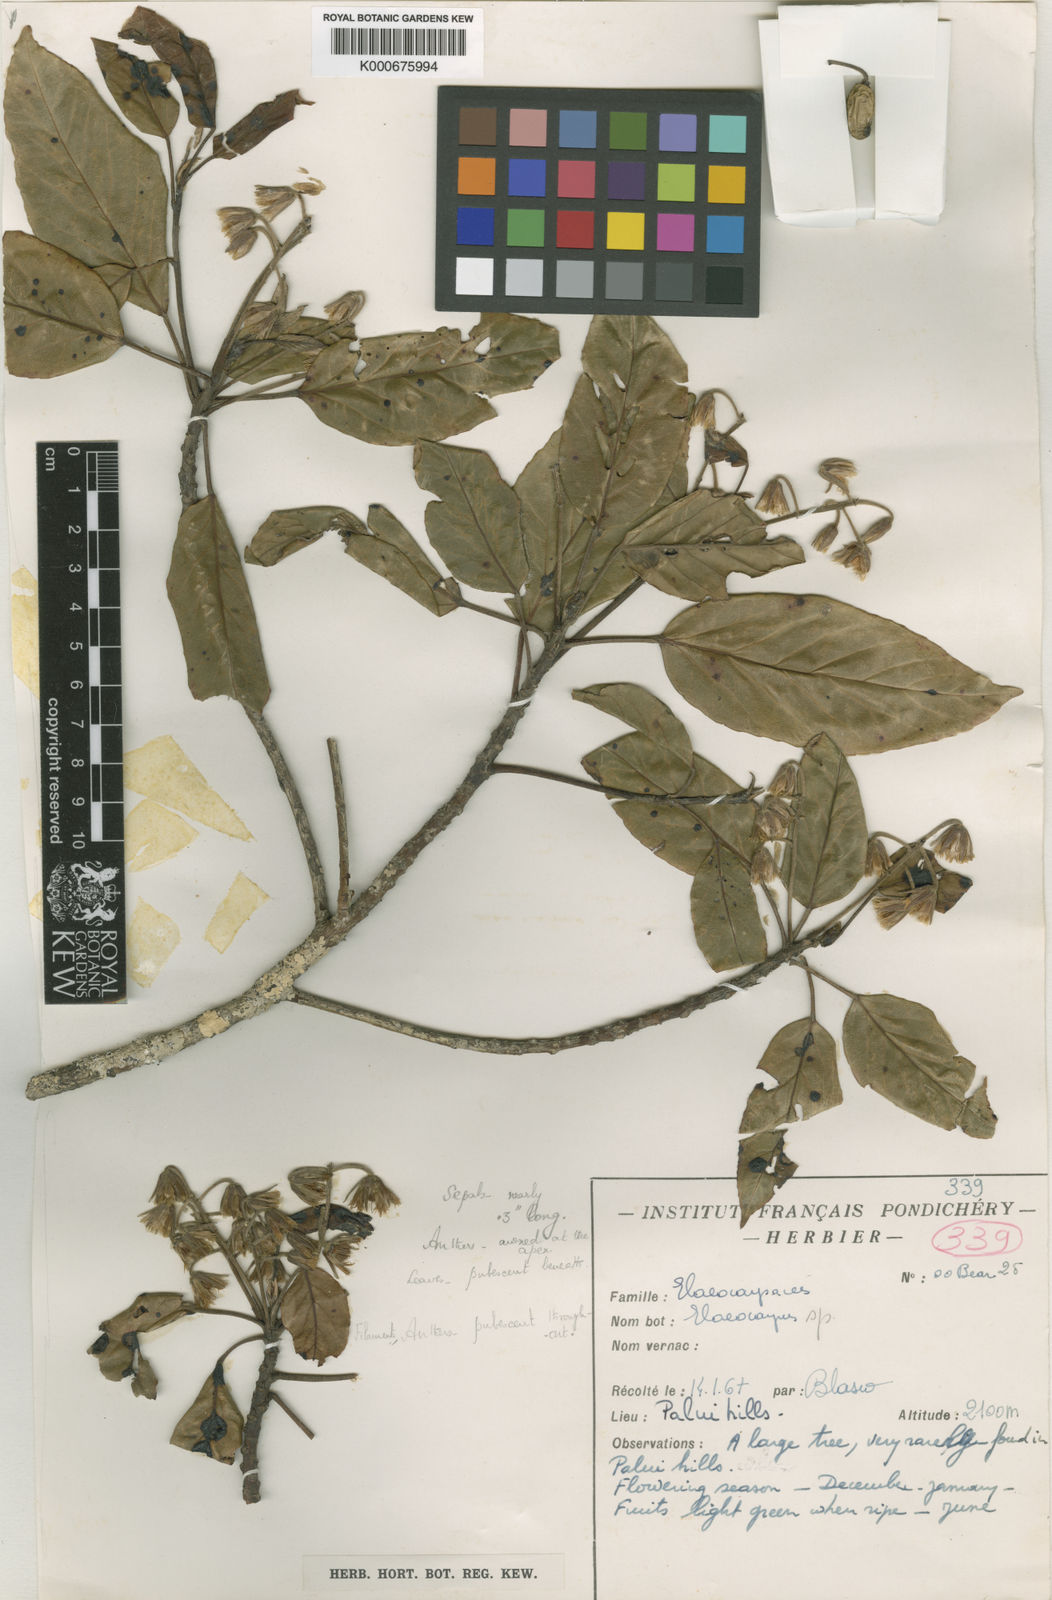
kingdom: Plantae
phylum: Tracheophyta
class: Magnoliopsida
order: Oxalidales
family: Elaeocarpaceae
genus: Elaeocarpus
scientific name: Elaeocarpus blascoi
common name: Rudrakhsa tree
